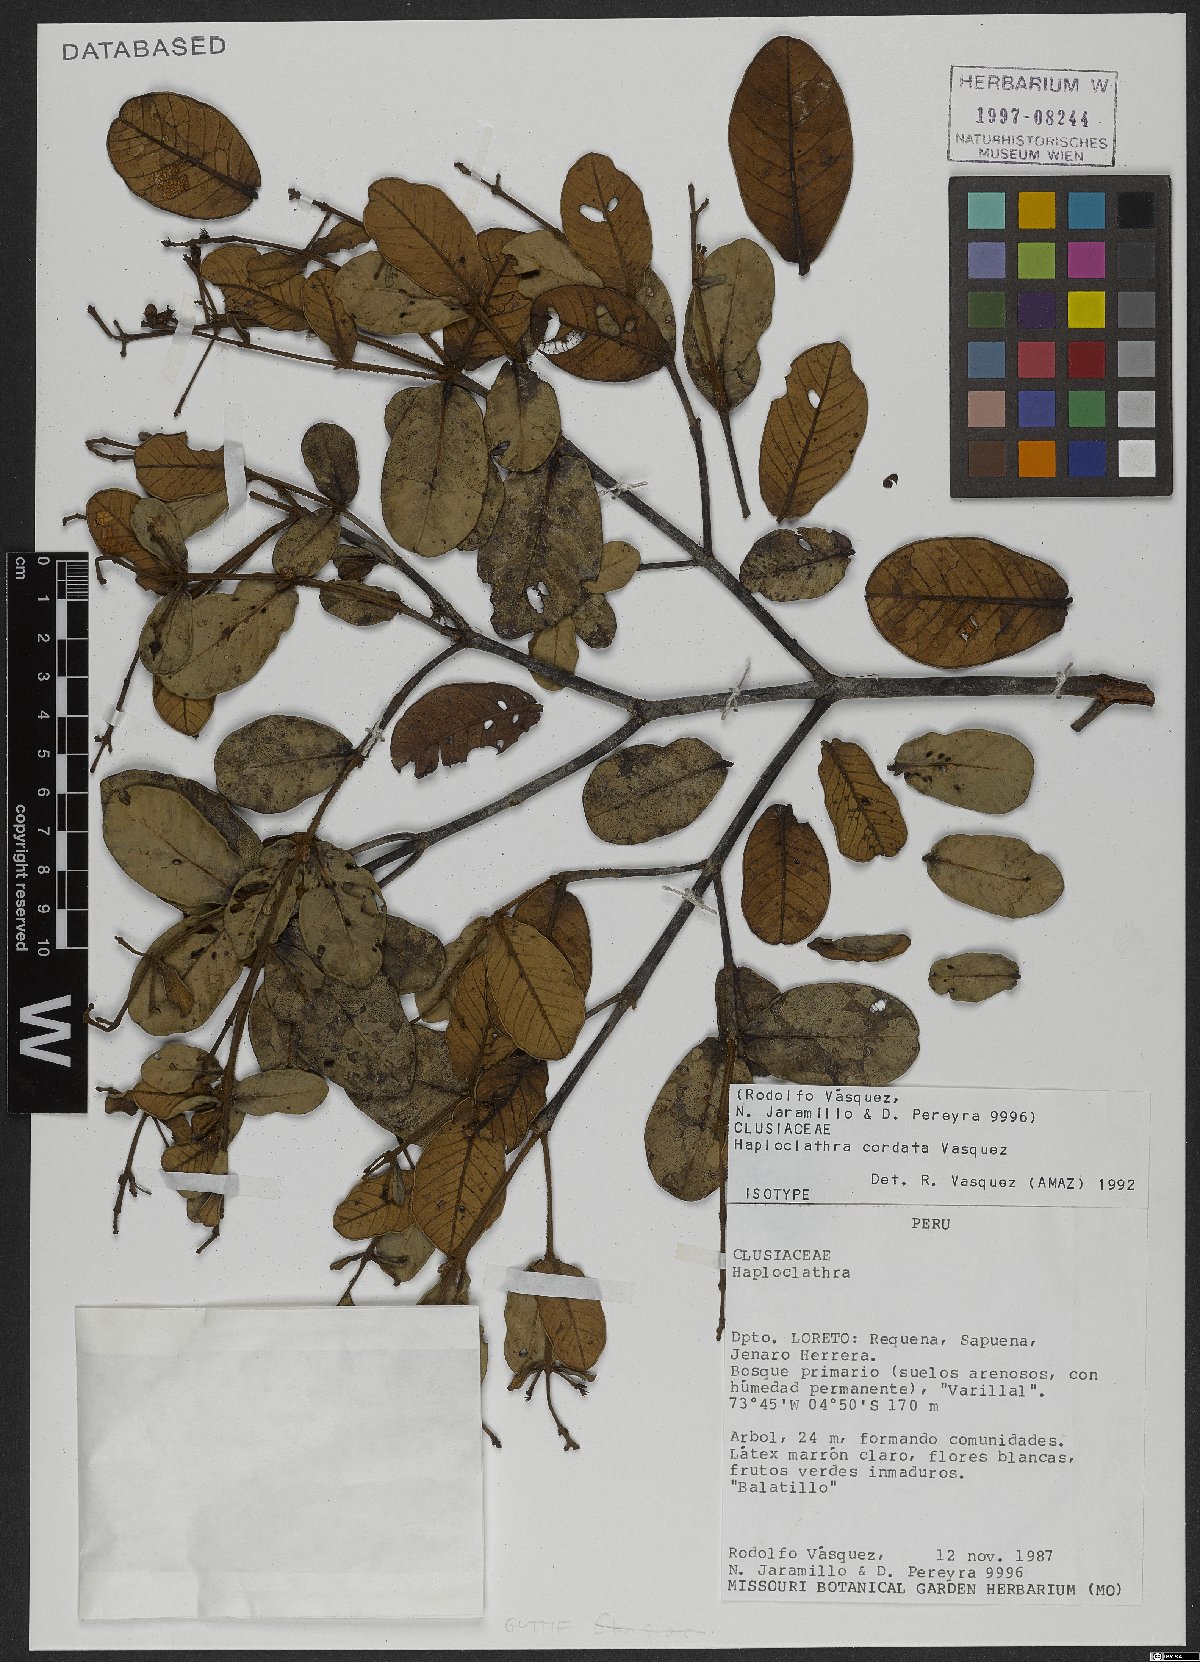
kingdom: Plantae
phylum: Tracheophyta
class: Magnoliopsida
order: Malpighiales
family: Calophyllaceae
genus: Haploclathra
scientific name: Haploclathra cordata
